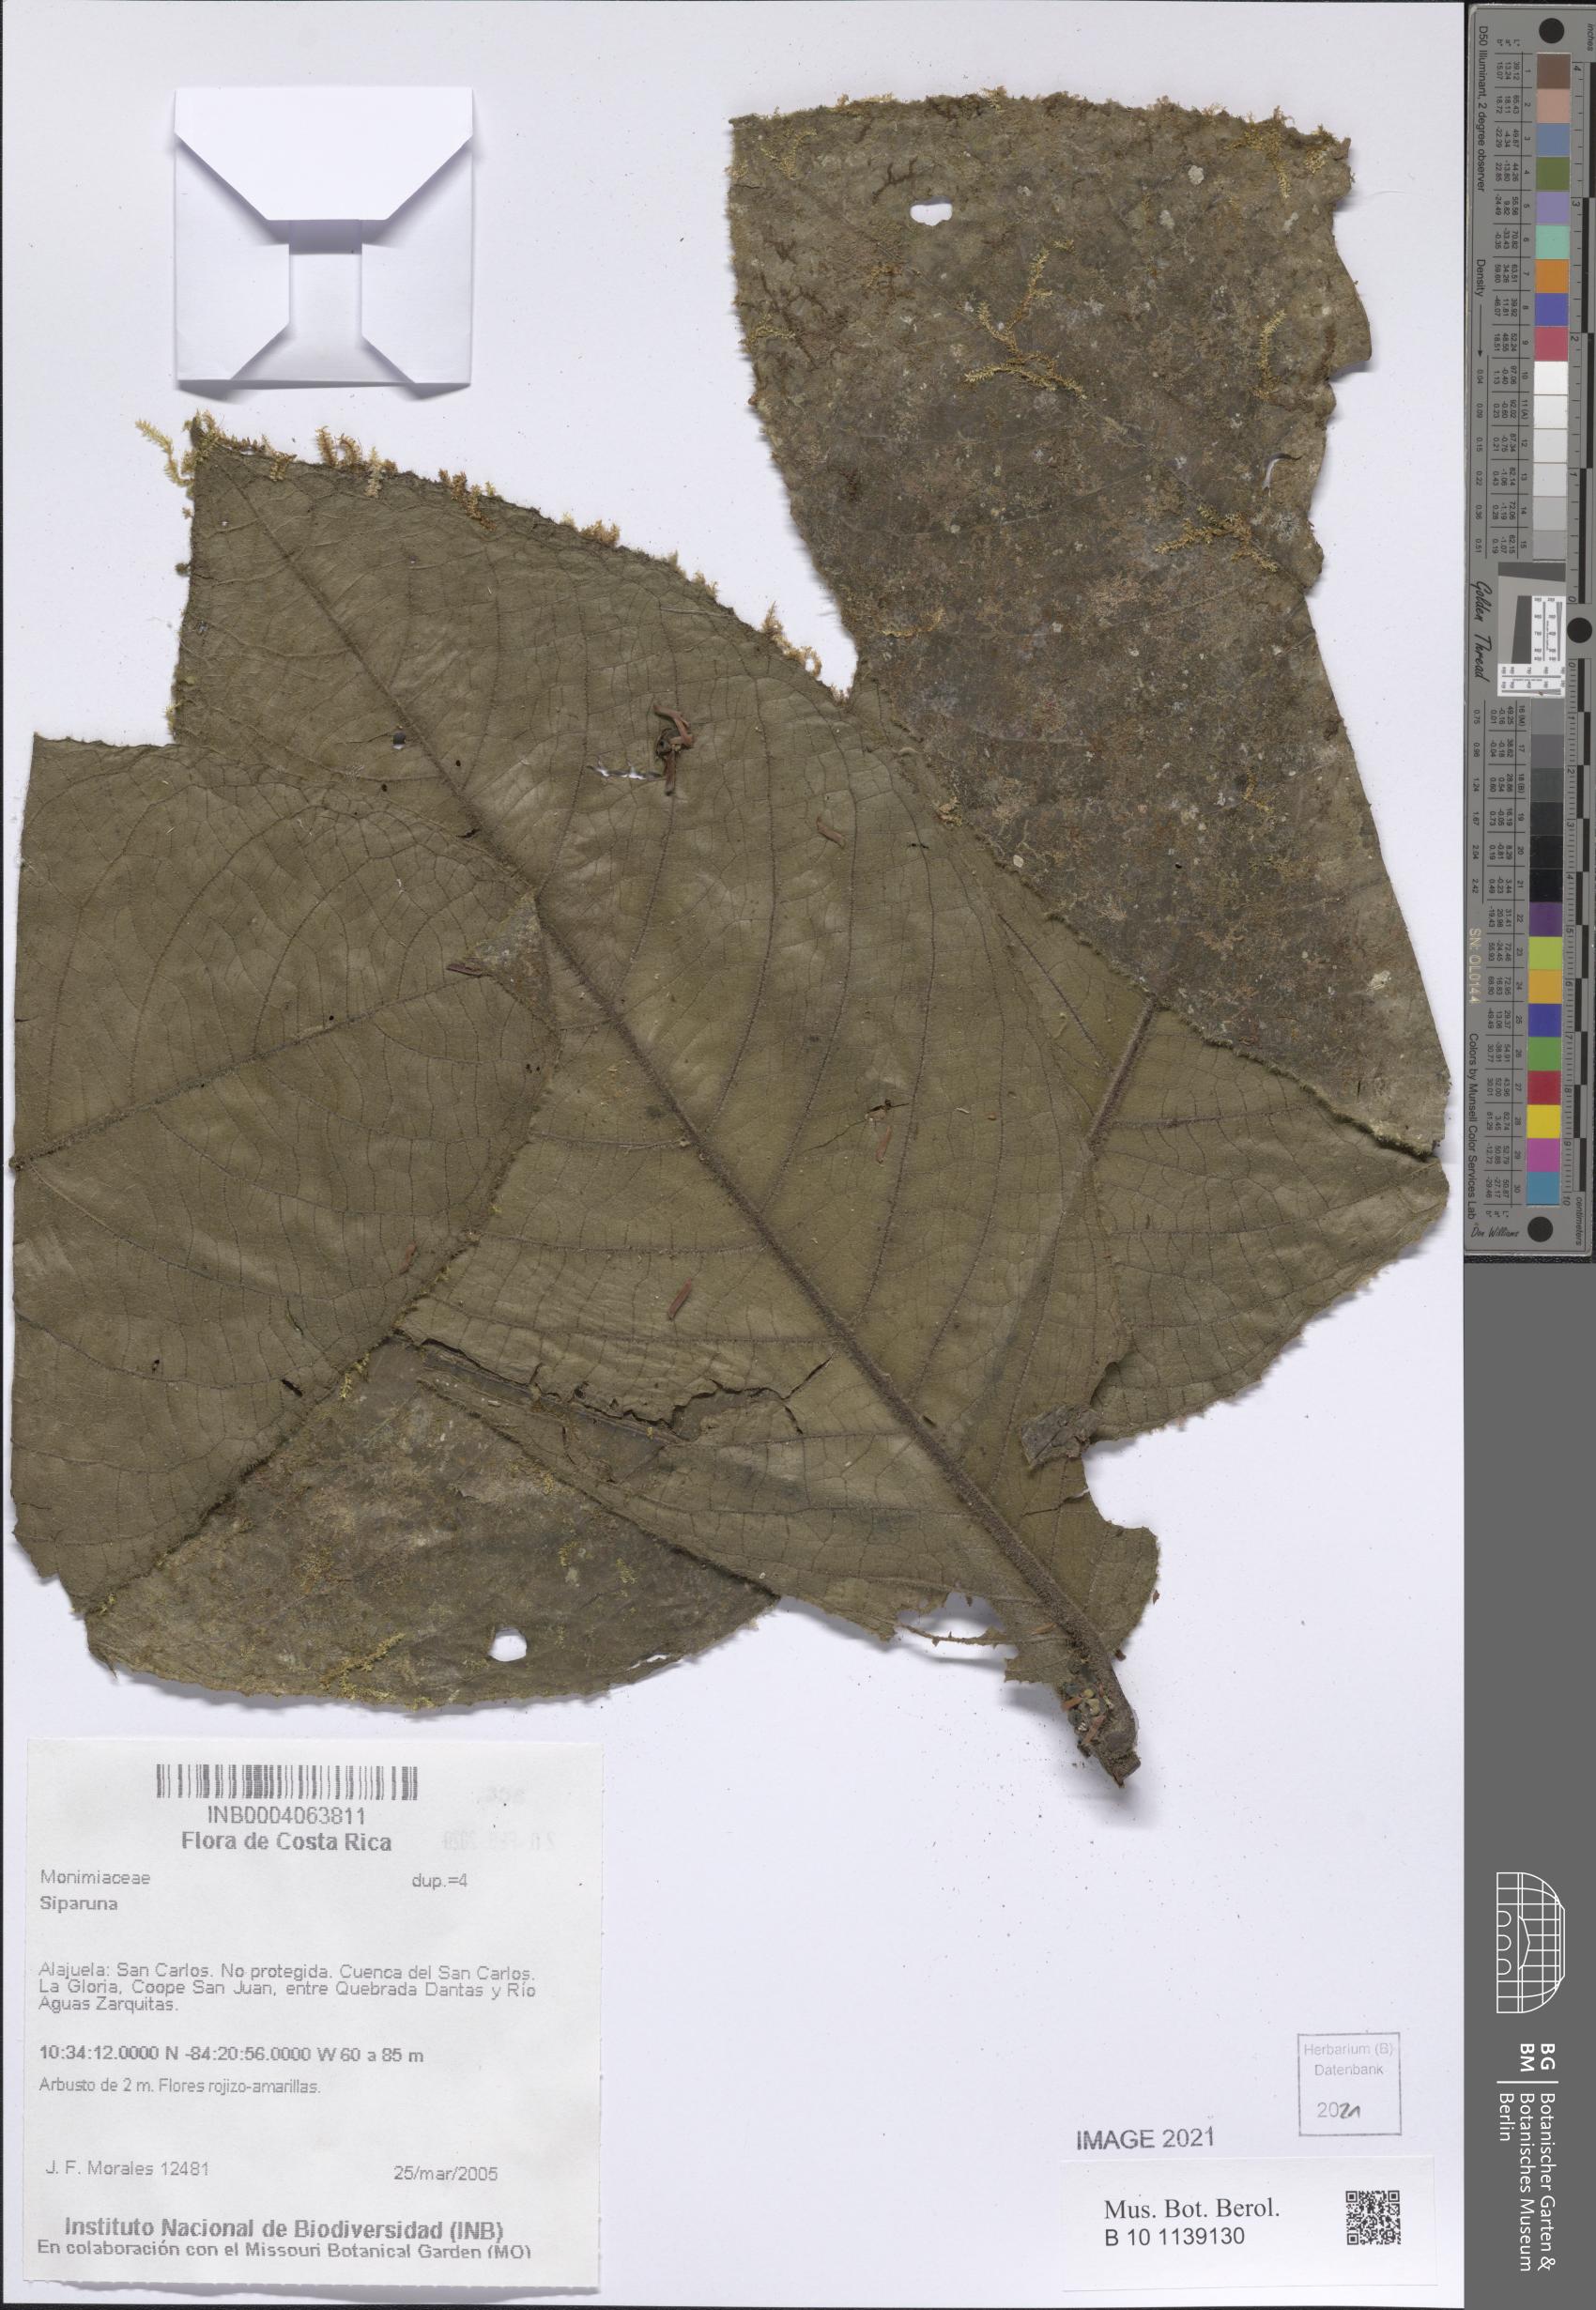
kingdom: Plantae
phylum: Tracheophyta
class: Magnoliopsida
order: Laurales
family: Siparunaceae
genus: Siparuna
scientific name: Siparuna
